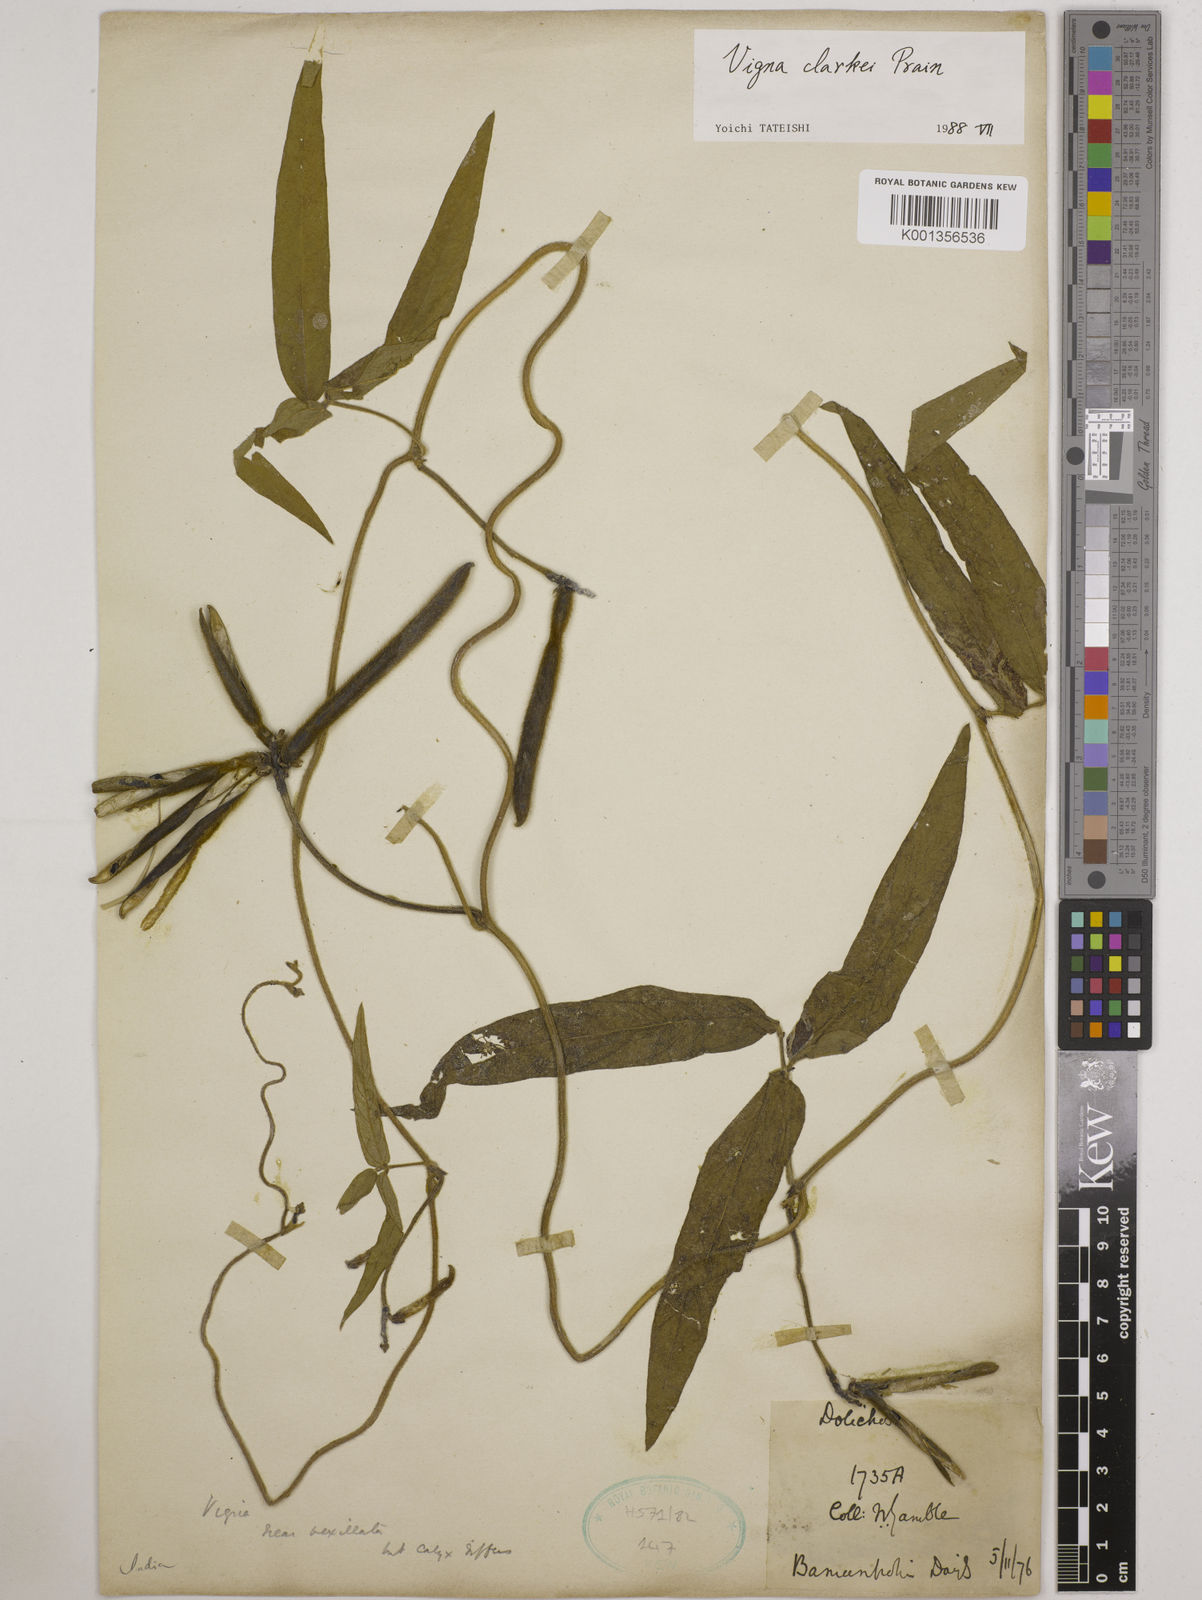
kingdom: Plantae
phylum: Tracheophyta
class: Magnoliopsida
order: Fabales
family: Fabaceae
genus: Vigna
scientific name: Vigna
